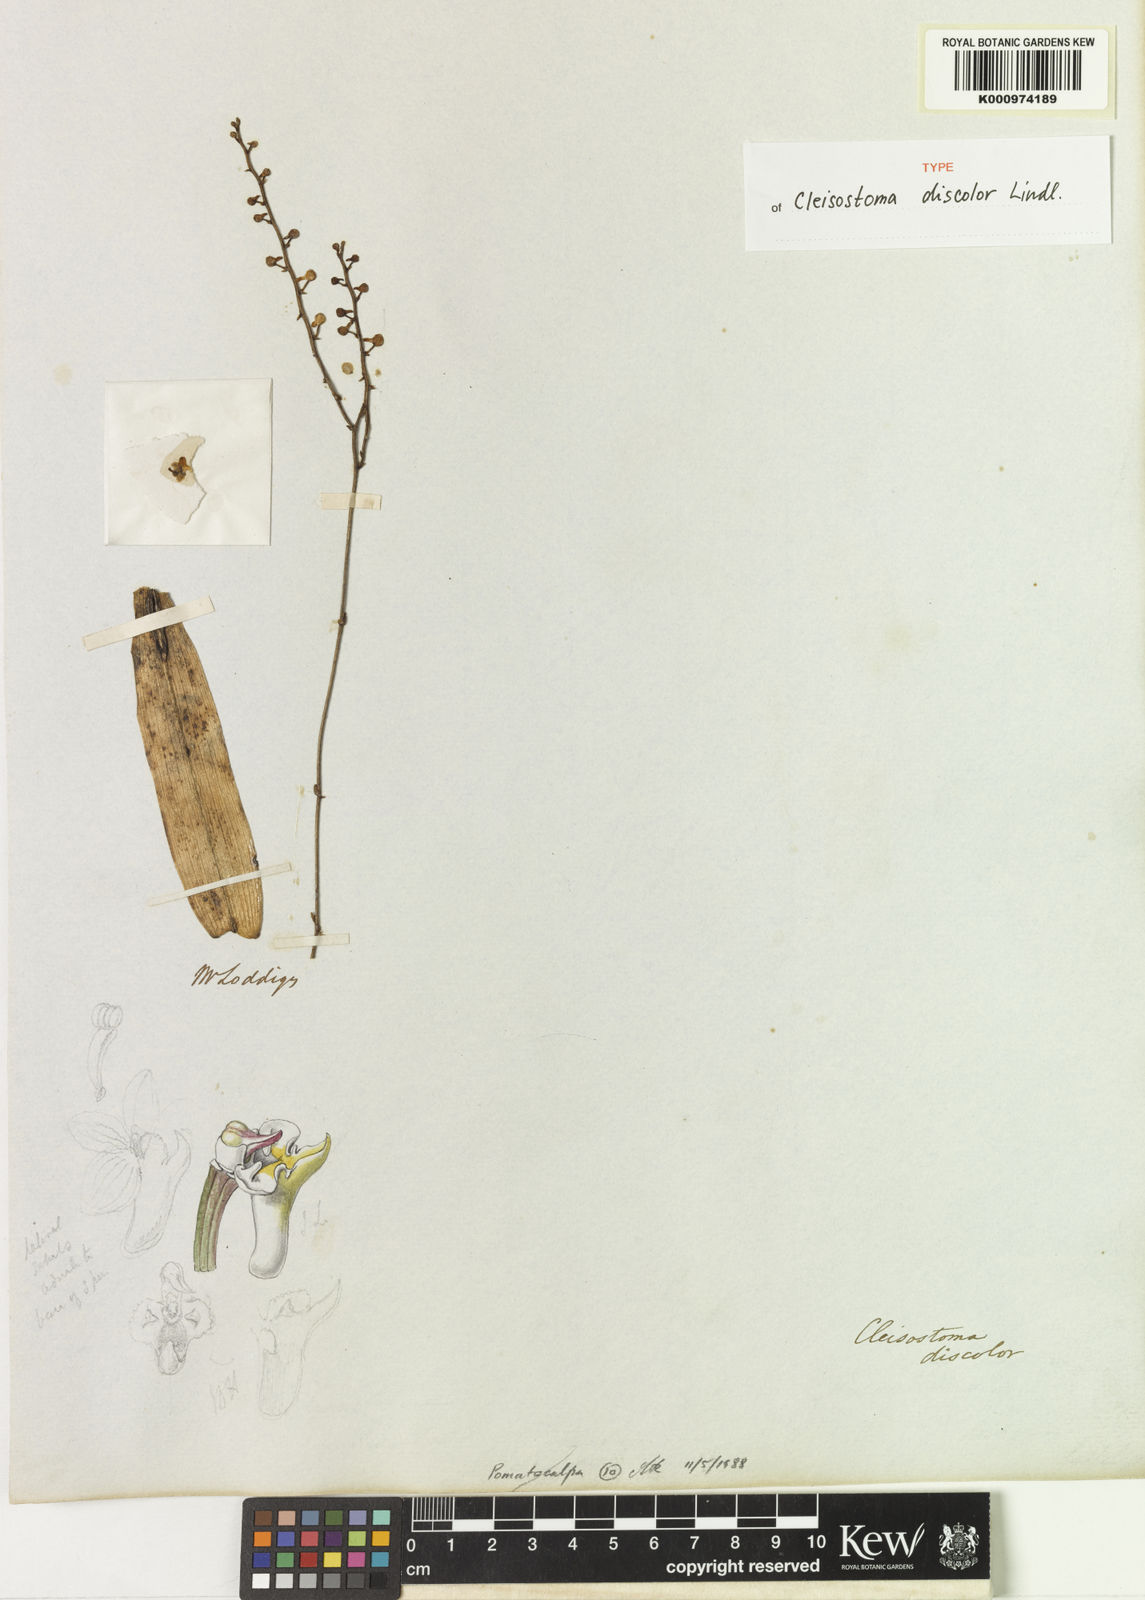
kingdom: Plantae
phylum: Tracheophyta
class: Liliopsida
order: Asparagales
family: Orchidaceae
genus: Cleisostoma
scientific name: Cleisostoma discolor
